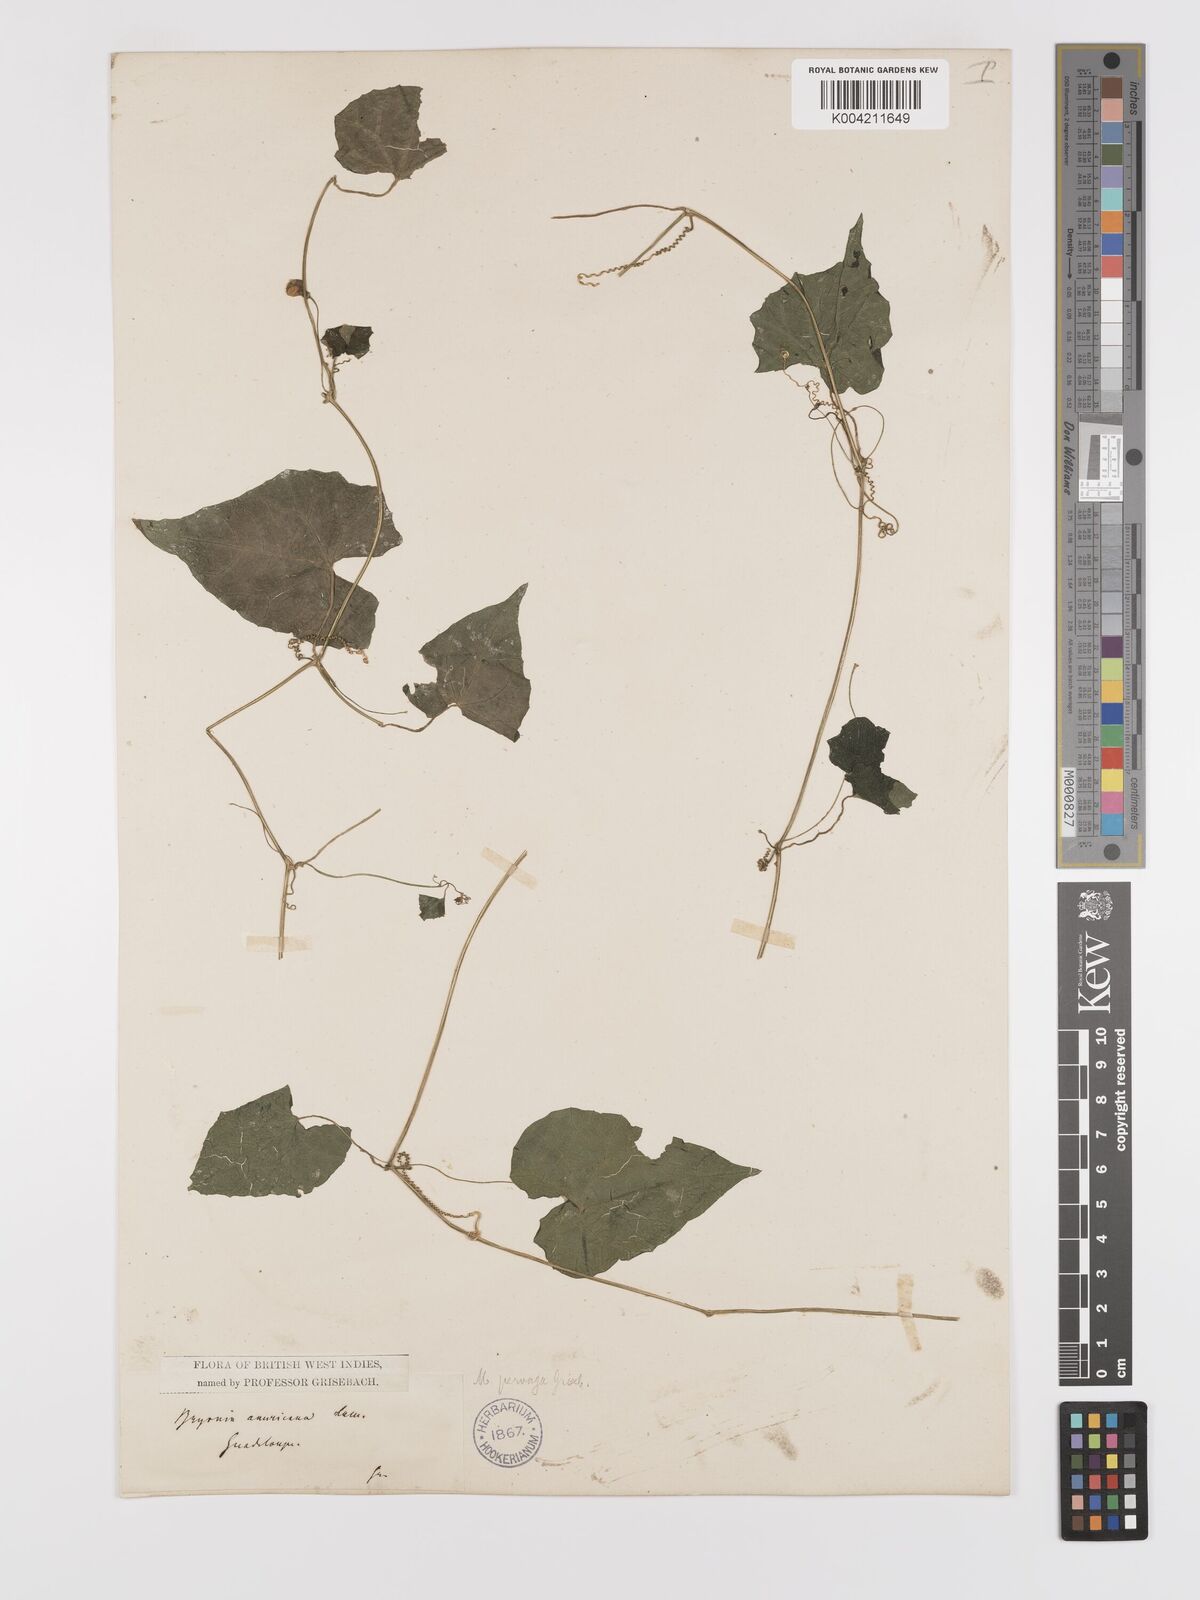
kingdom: Plantae
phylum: Tracheophyta
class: Magnoliopsida
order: Cucurbitales
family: Cucurbitaceae
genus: Melothria
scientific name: Melothria
